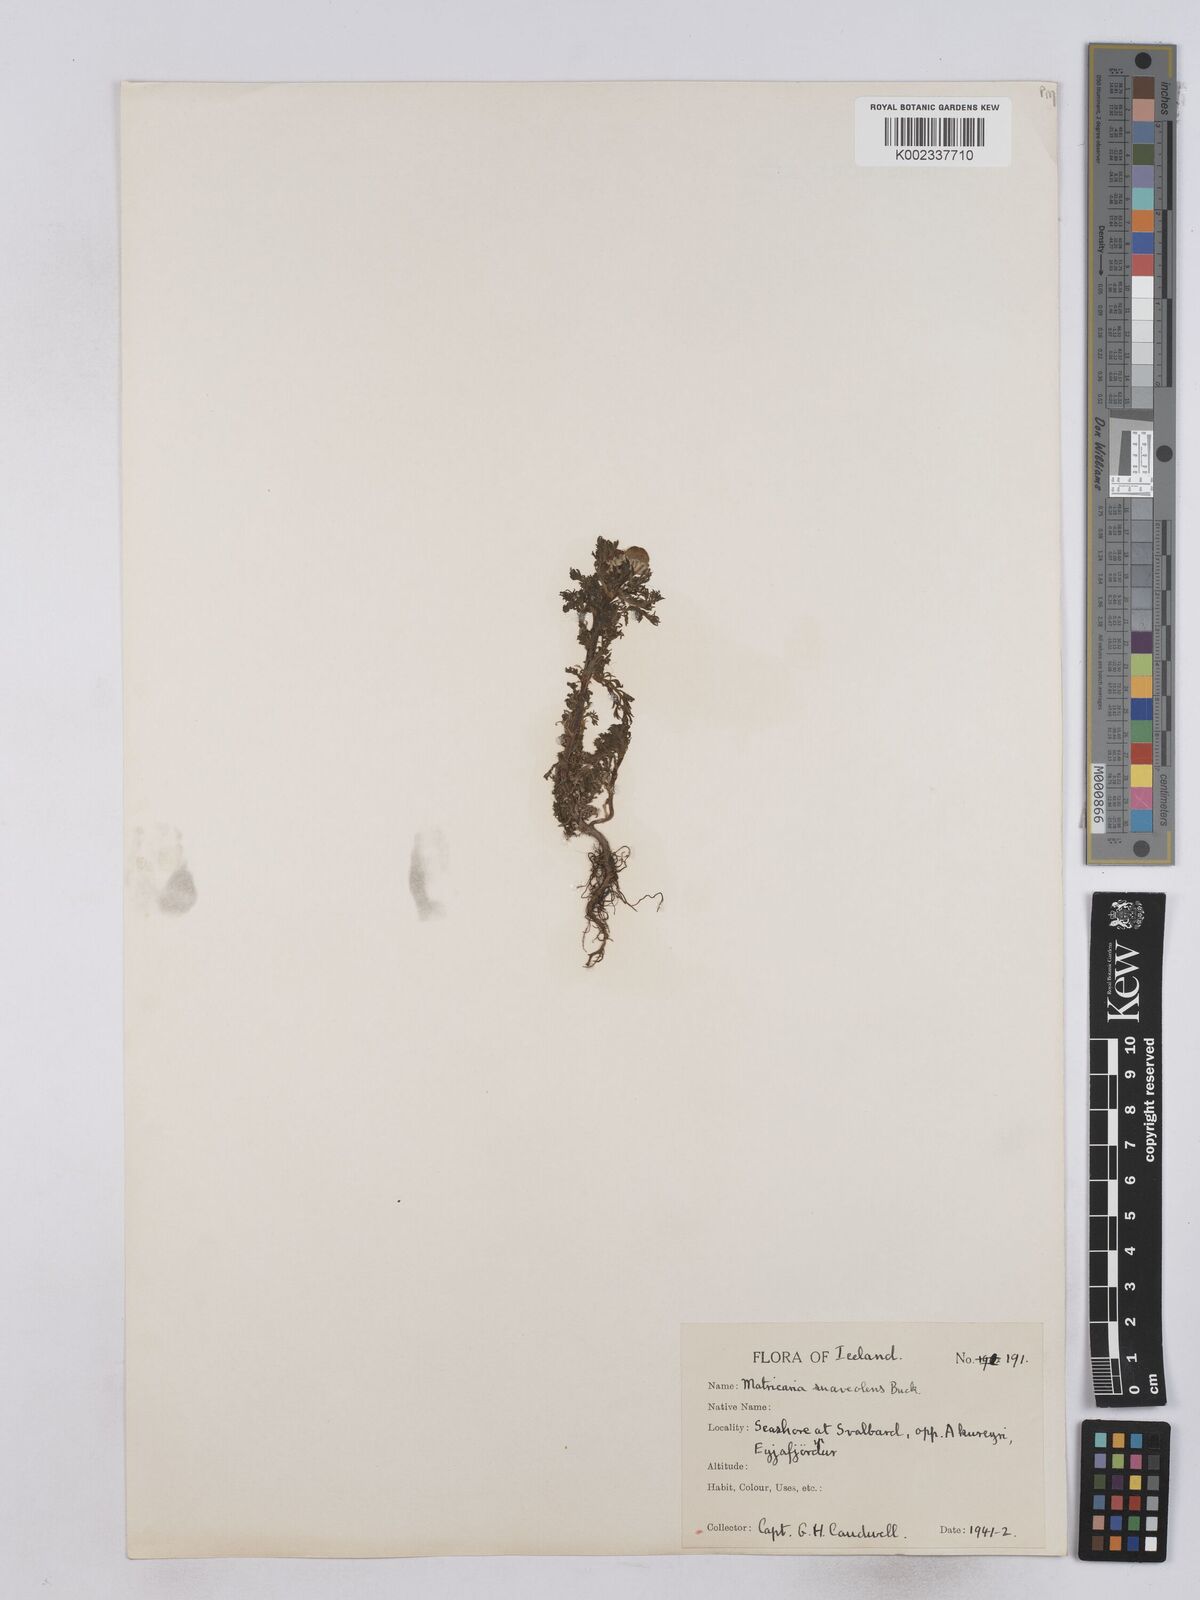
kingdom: Plantae
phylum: Tracheophyta
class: Magnoliopsida
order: Asterales
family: Asteraceae
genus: Matricaria
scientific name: Matricaria discoidea
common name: Disc mayweed
